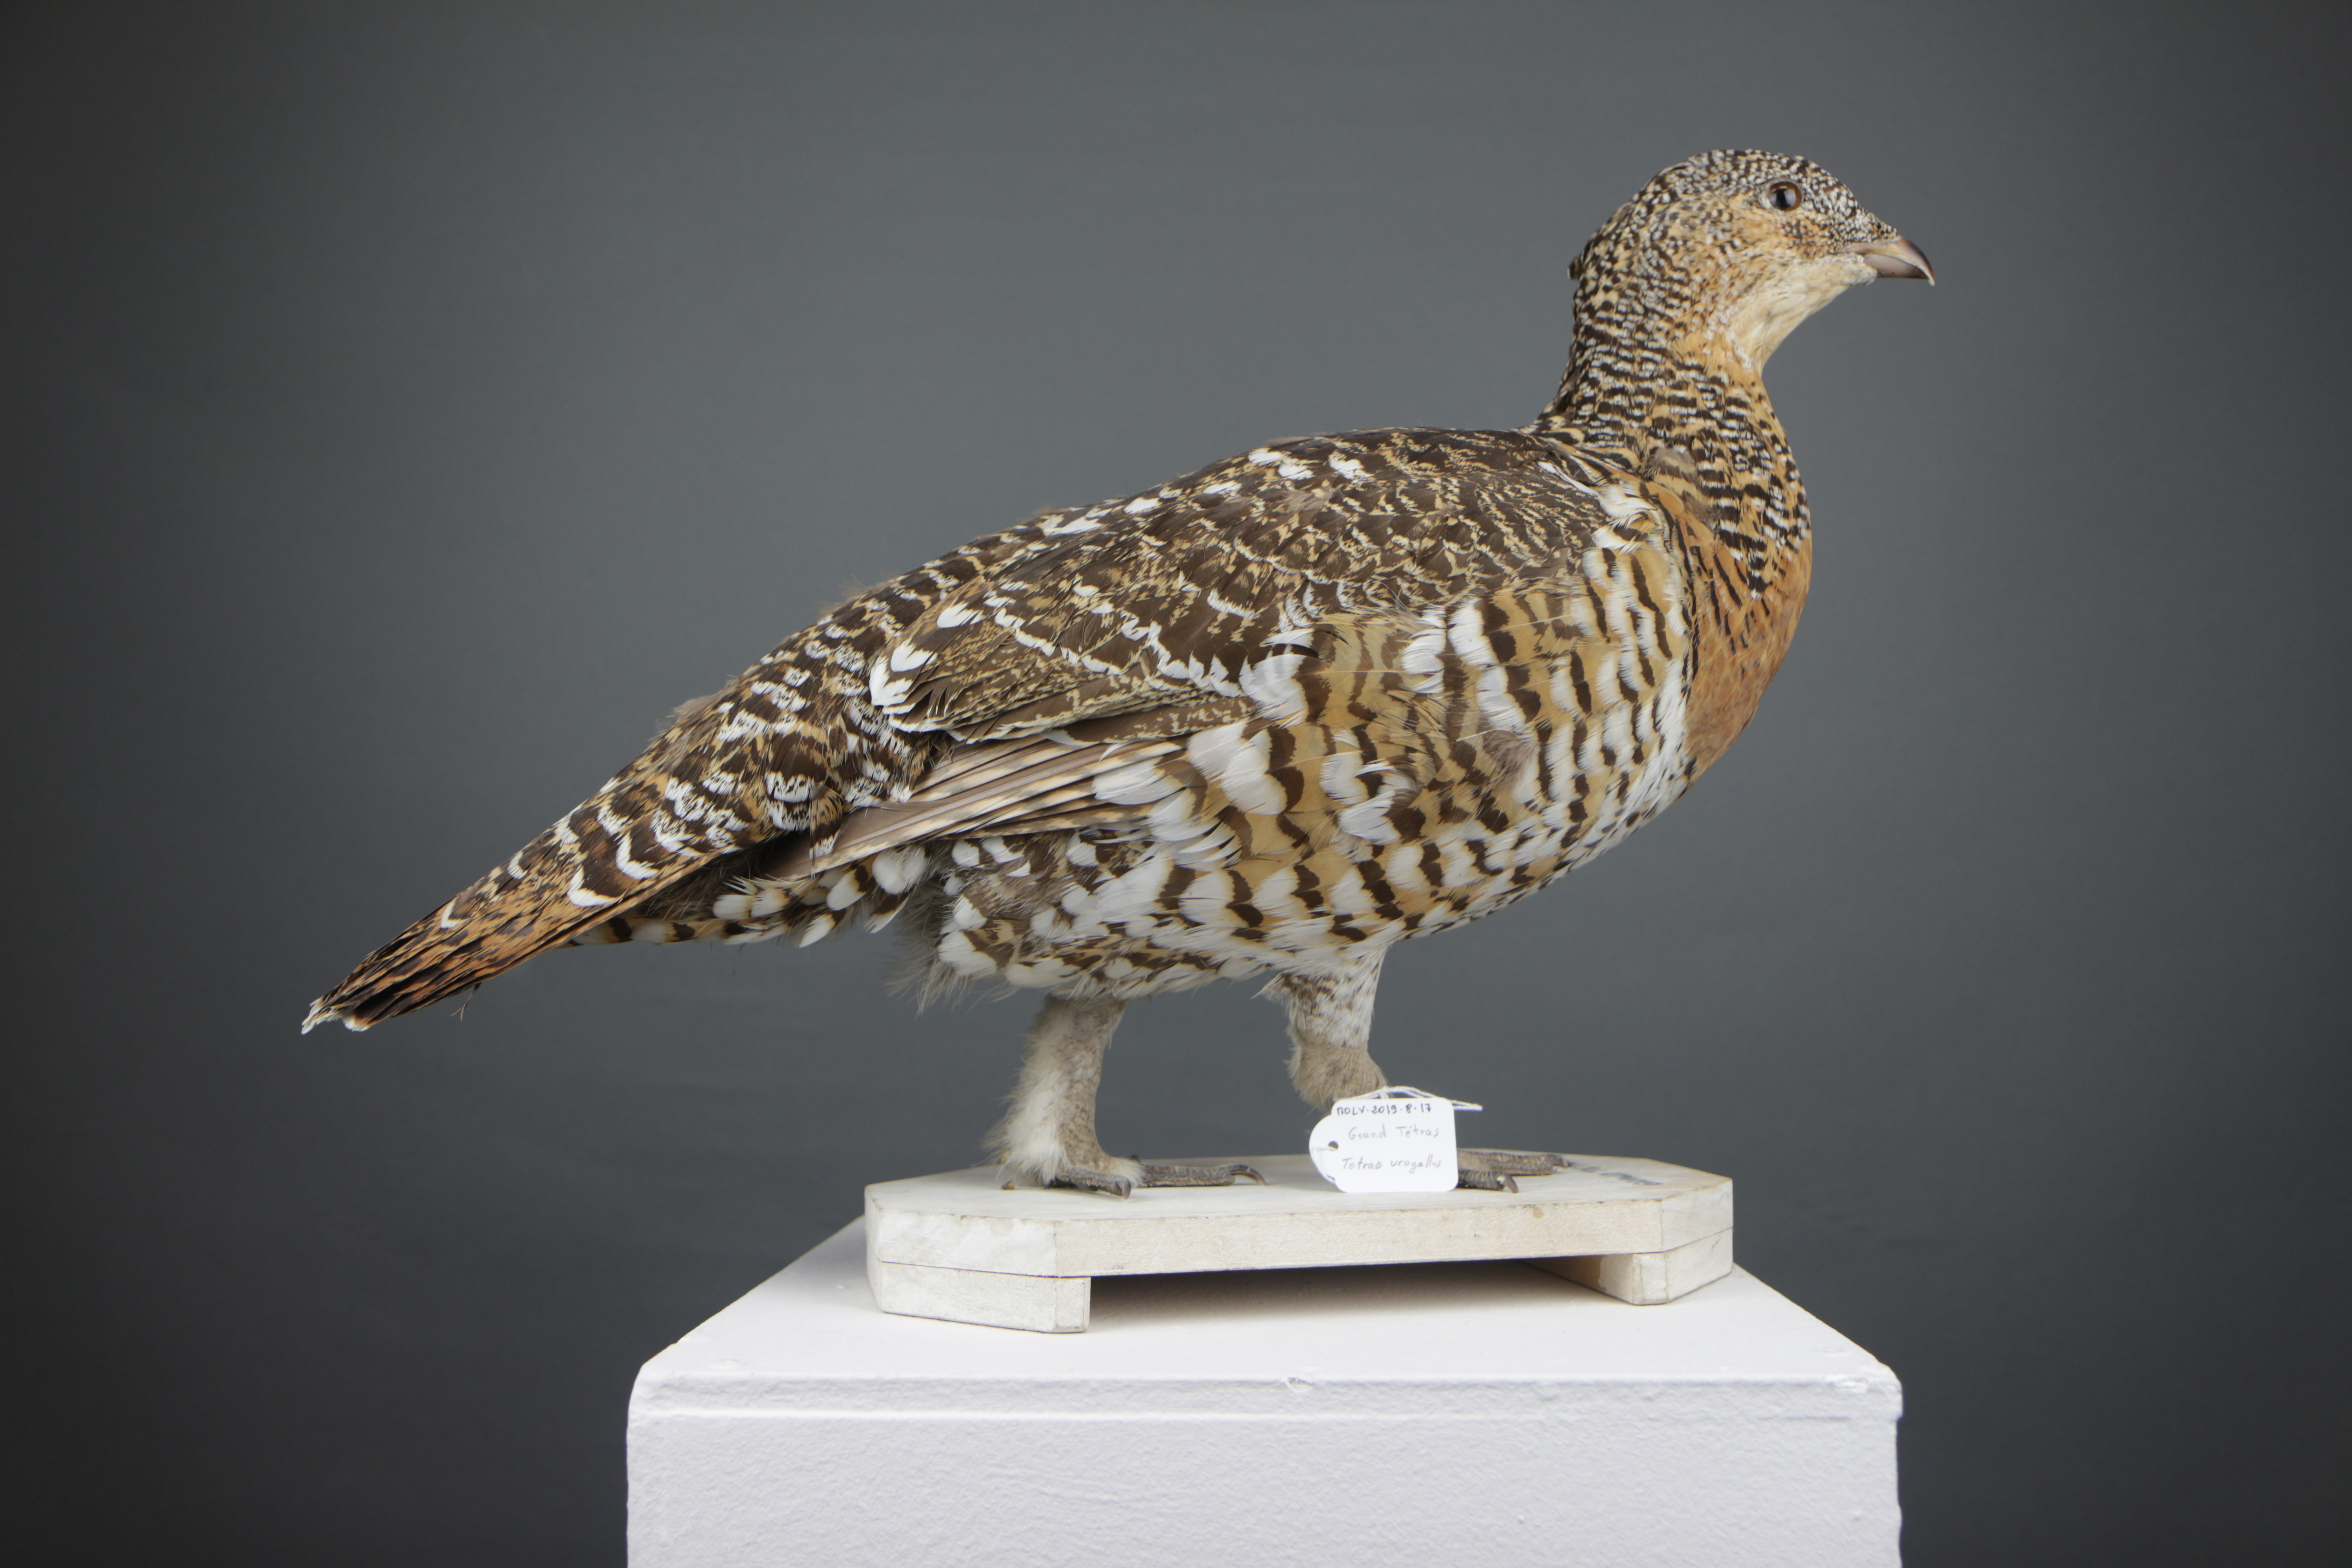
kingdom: Animalia
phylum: Chordata
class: Aves
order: Galliformes
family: Phasianidae
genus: Tetrao
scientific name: Tetrao urogallus
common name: Western capercaillie
